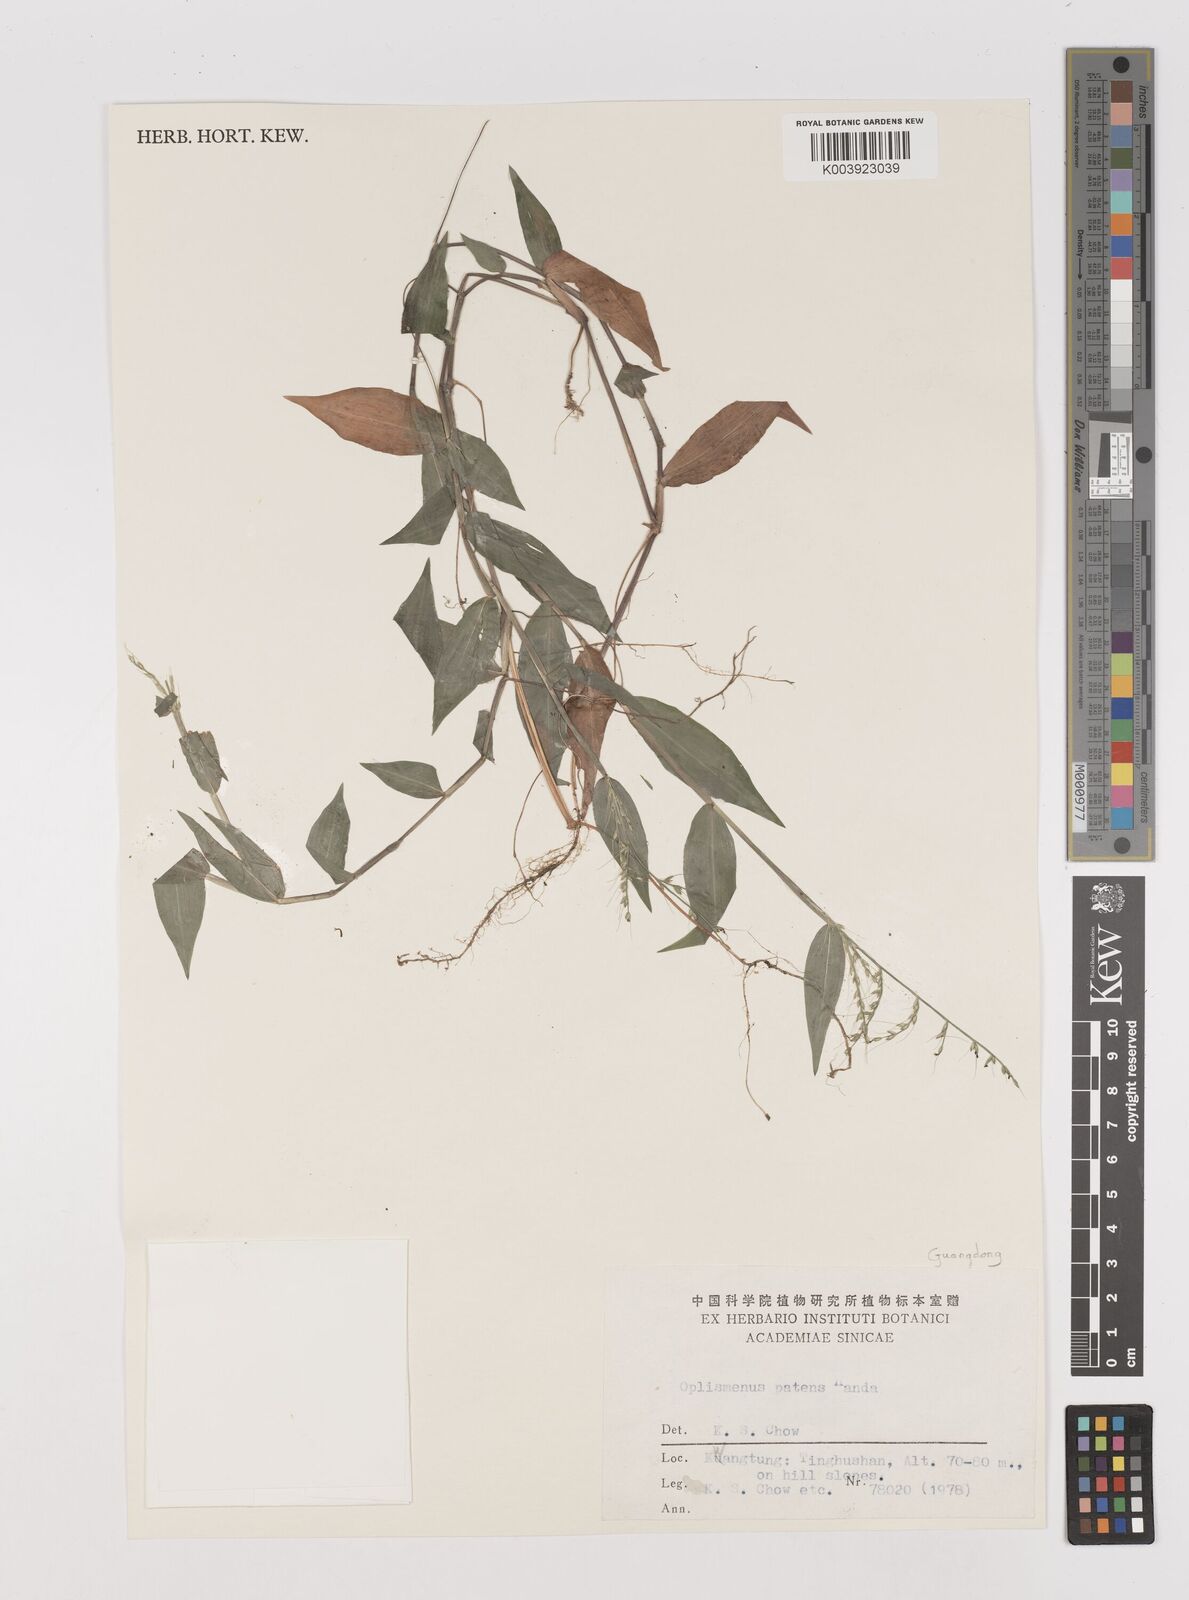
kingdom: Plantae
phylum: Tracheophyta
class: Liliopsida
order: Poales
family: Poaceae
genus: Oplismenus
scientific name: Oplismenus compositus
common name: Running mountain grass
